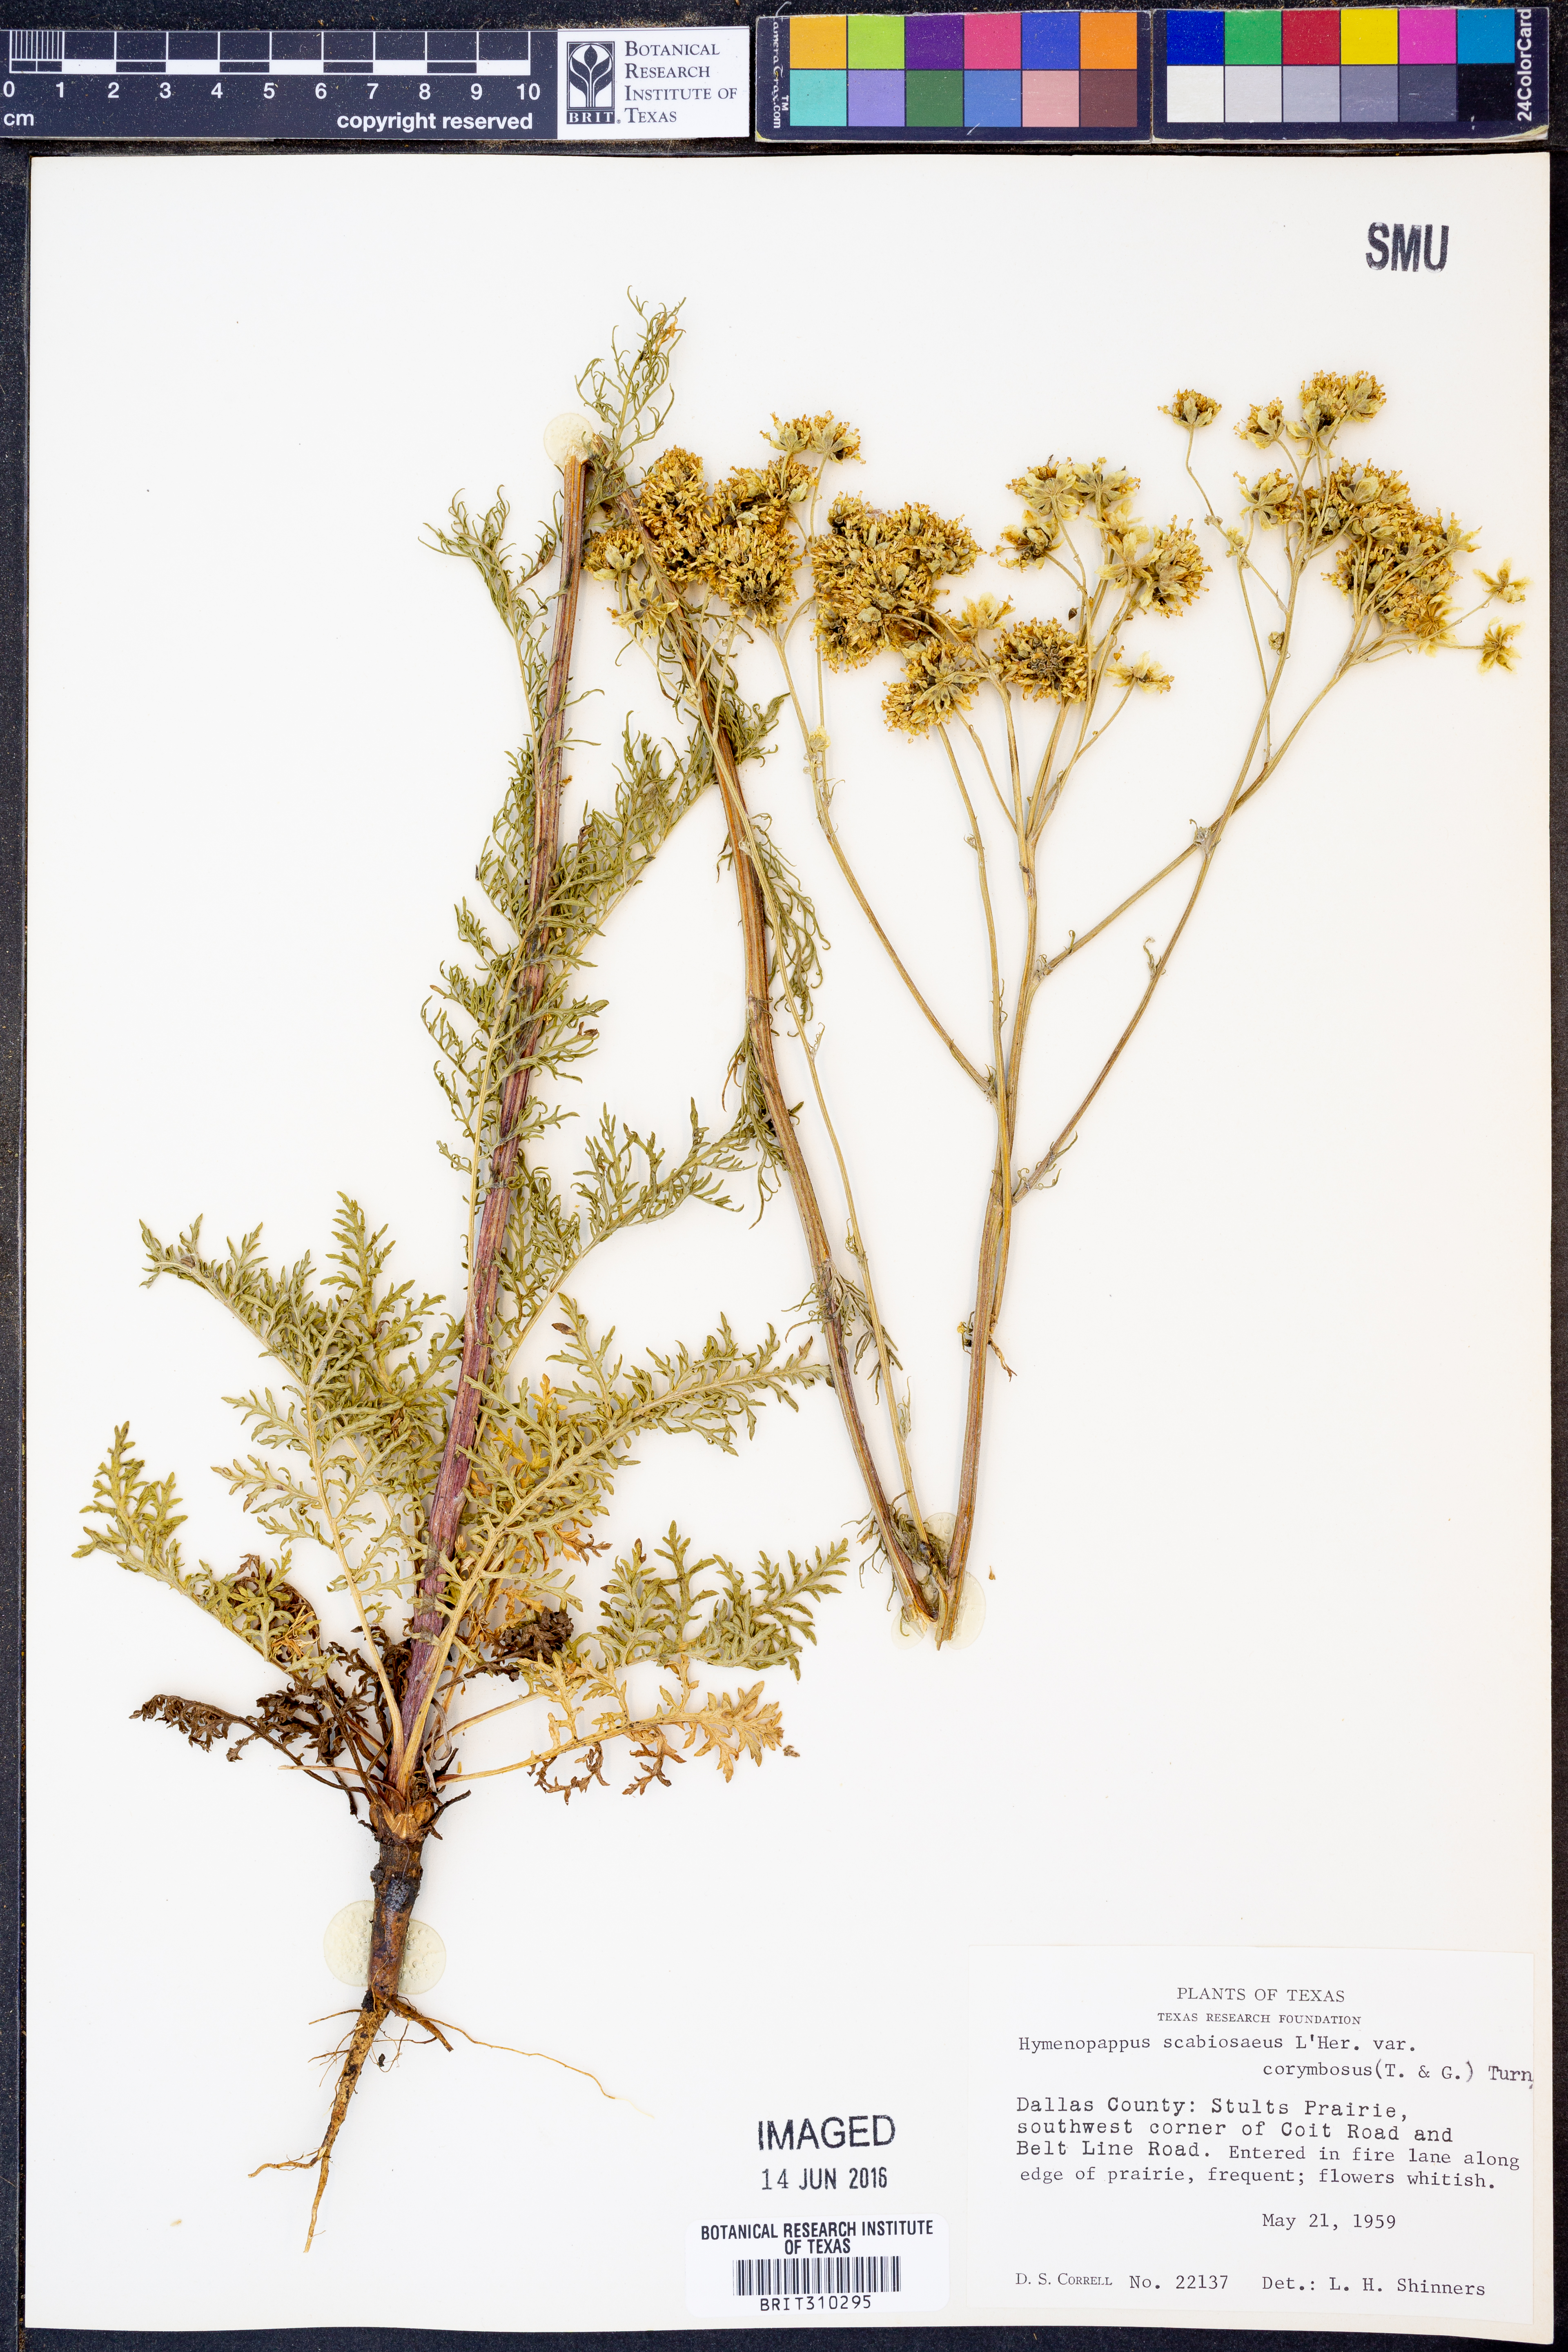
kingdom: Plantae
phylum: Tracheophyta
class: Magnoliopsida
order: Asterales
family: Asteraceae
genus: Hymenopappus
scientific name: Hymenopappus scabiosaeus
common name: Carolina woollywhite
